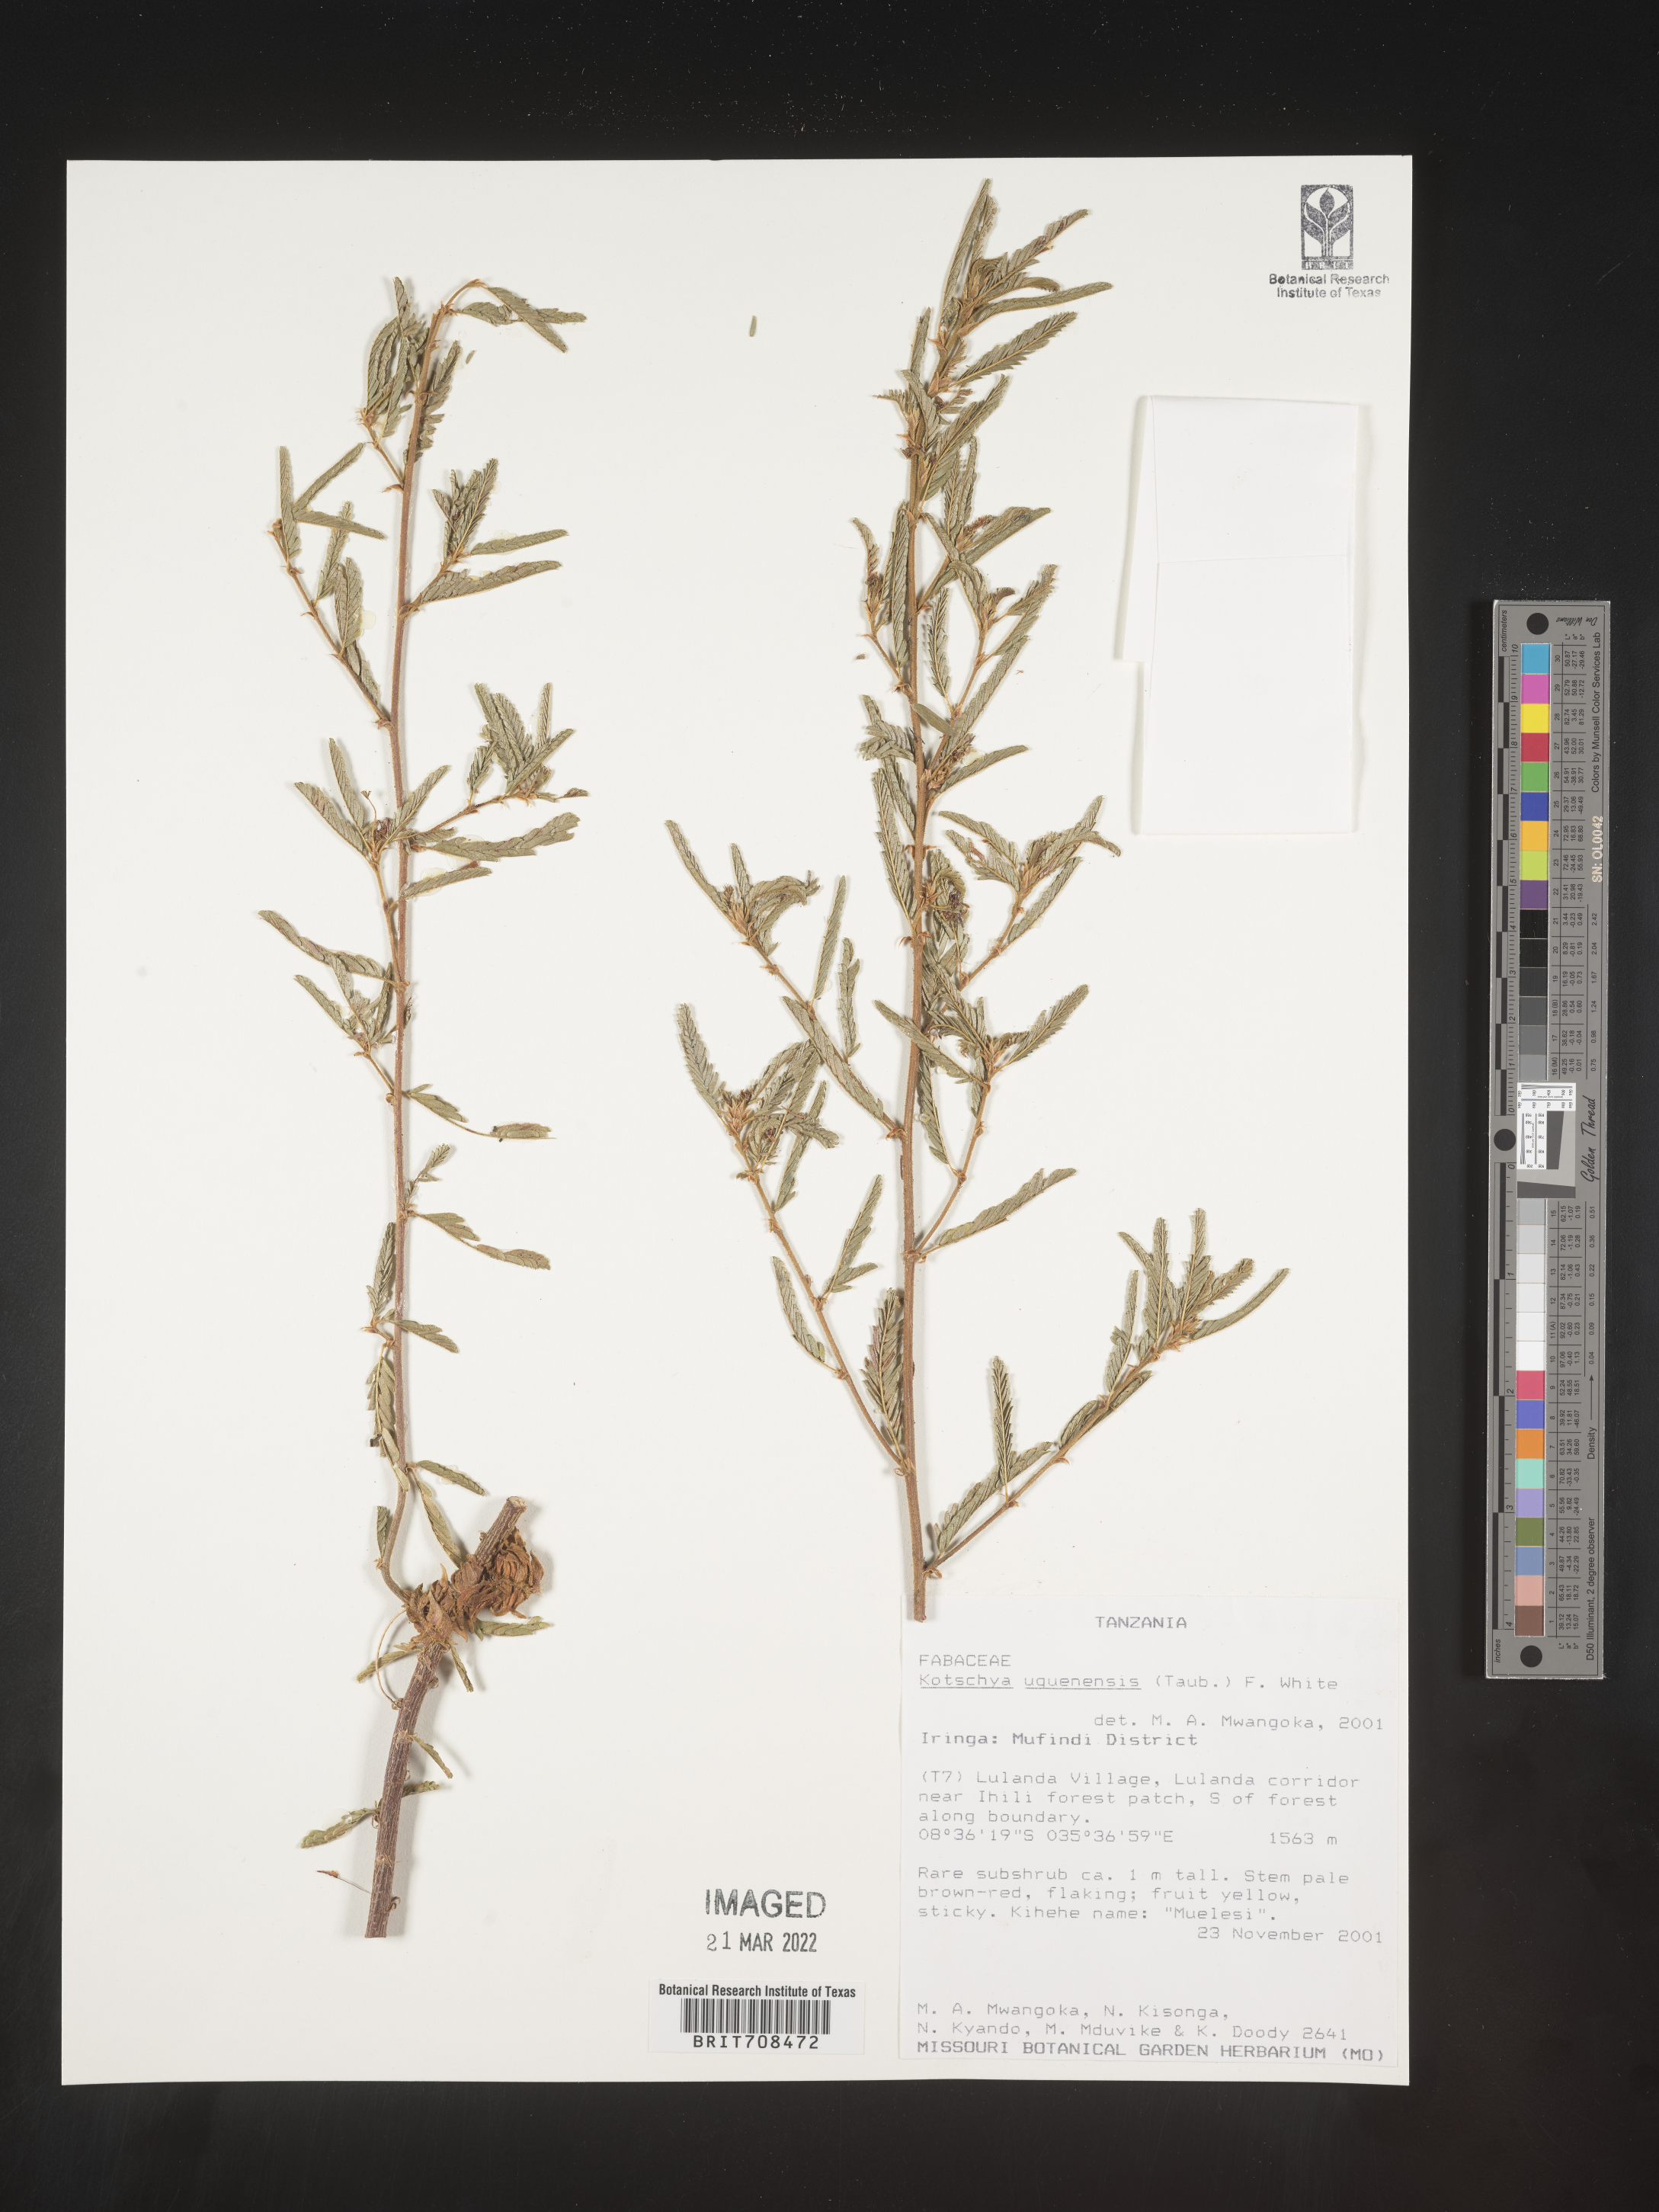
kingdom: Plantae
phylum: Tracheophyta
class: Magnoliopsida
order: Fabales
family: Fabaceae
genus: Kotschya
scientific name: Kotschya
